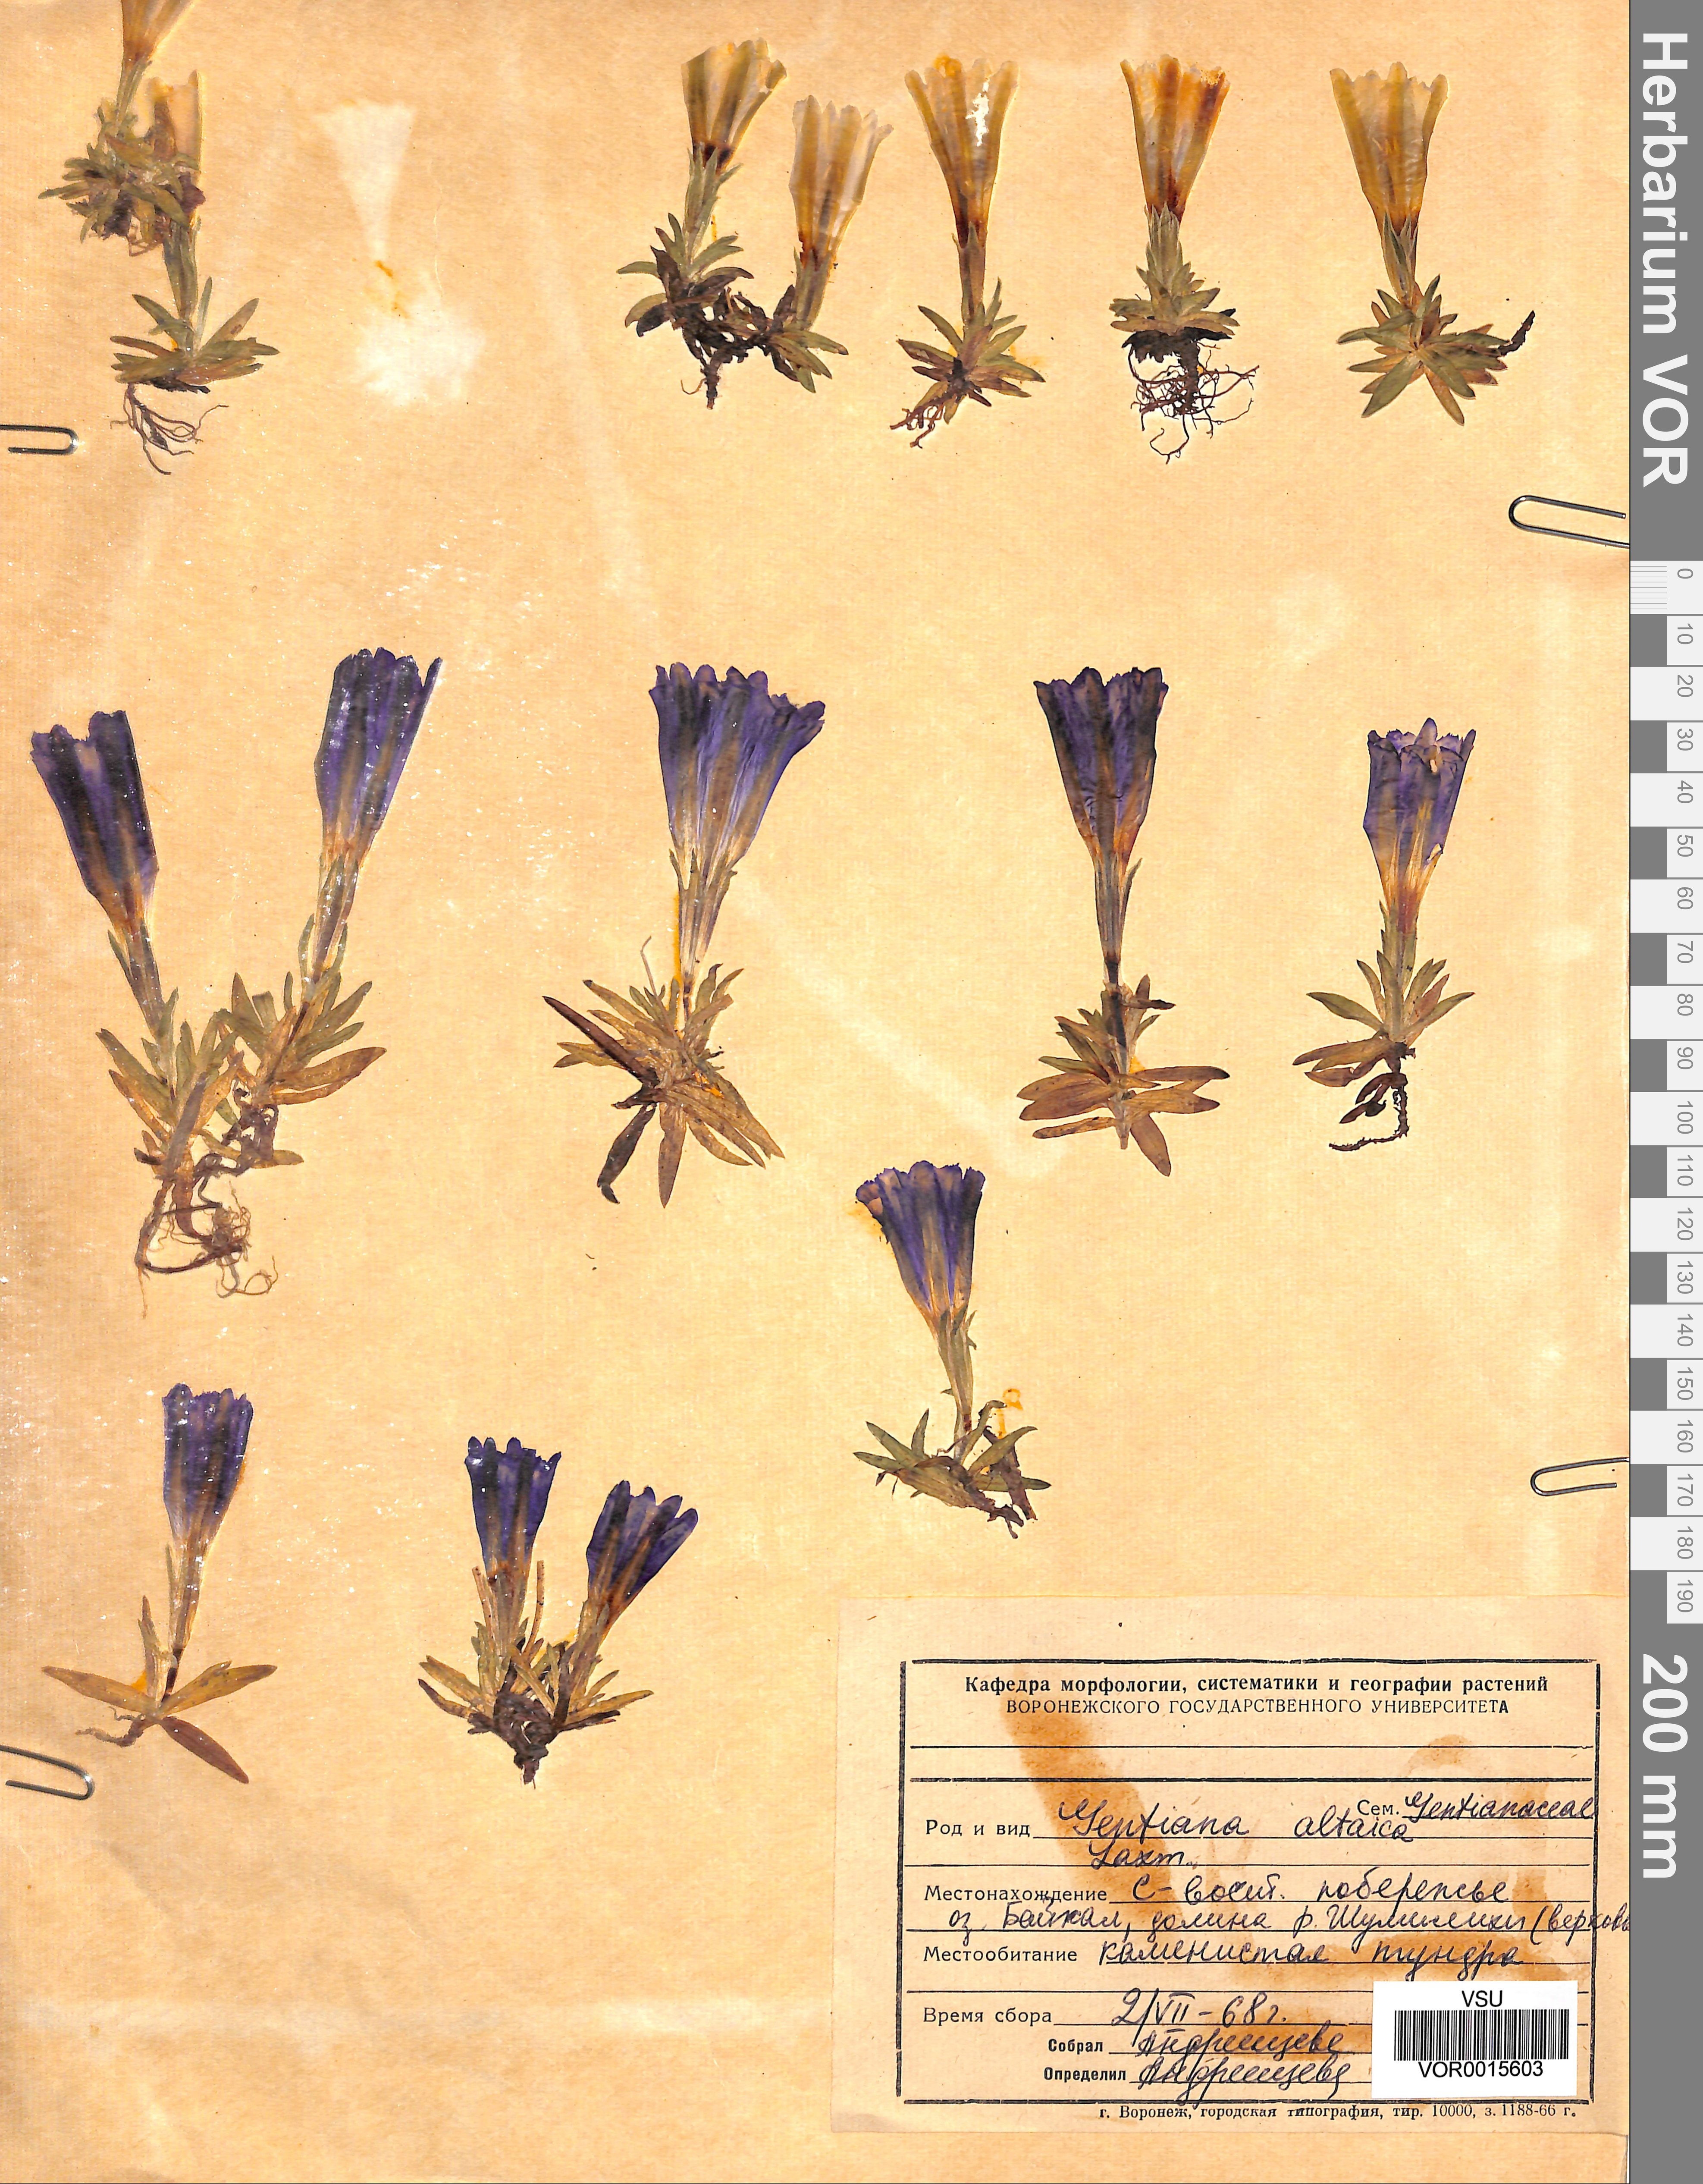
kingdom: Plantae
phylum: Tracheophyta
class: Magnoliopsida
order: Gentianales
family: Gentianaceae
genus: Gentiana
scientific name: Gentiana grandiflora
